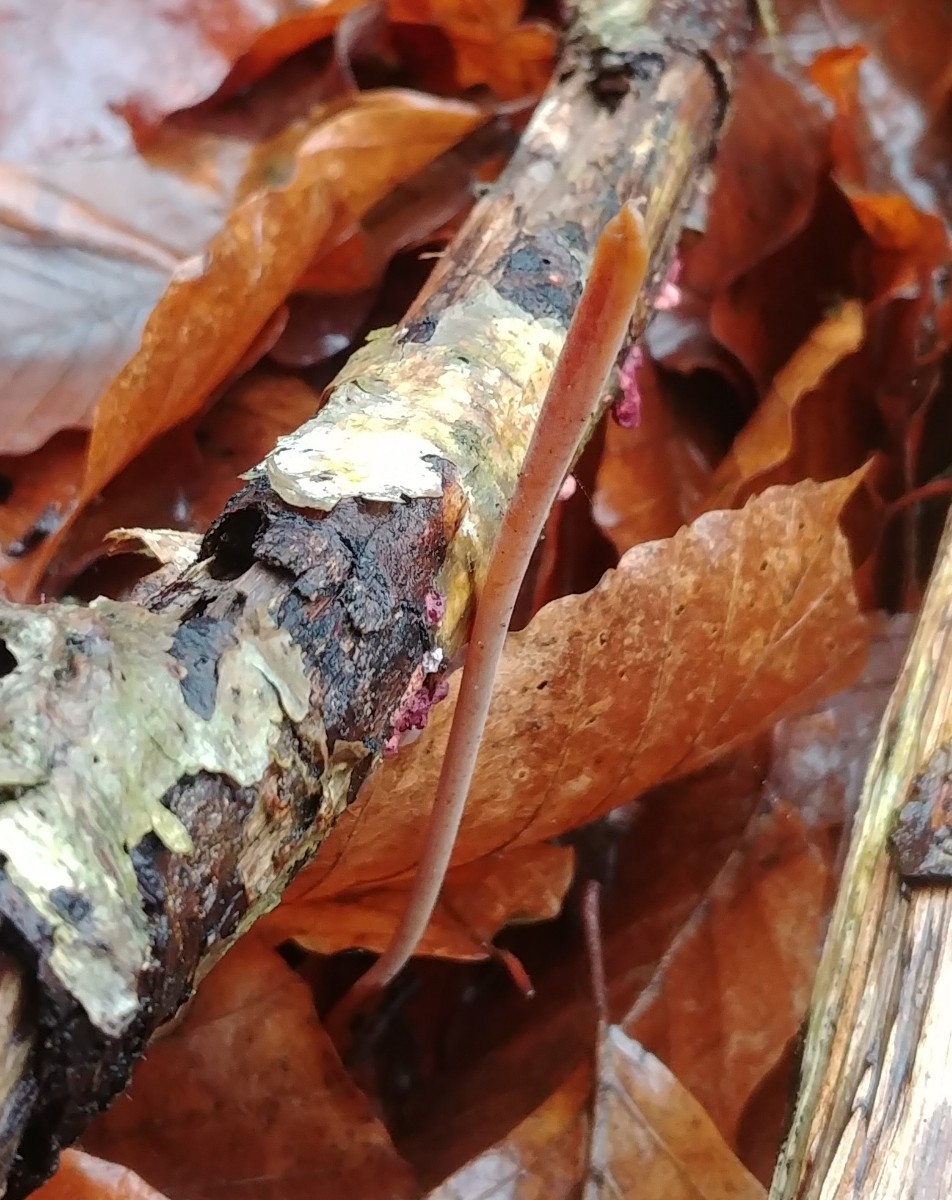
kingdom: Fungi
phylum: Basidiomycota
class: Agaricomycetes
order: Agaricales
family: Typhulaceae
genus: Typhula
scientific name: Typhula fistulosa
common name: pibet rørkølle
